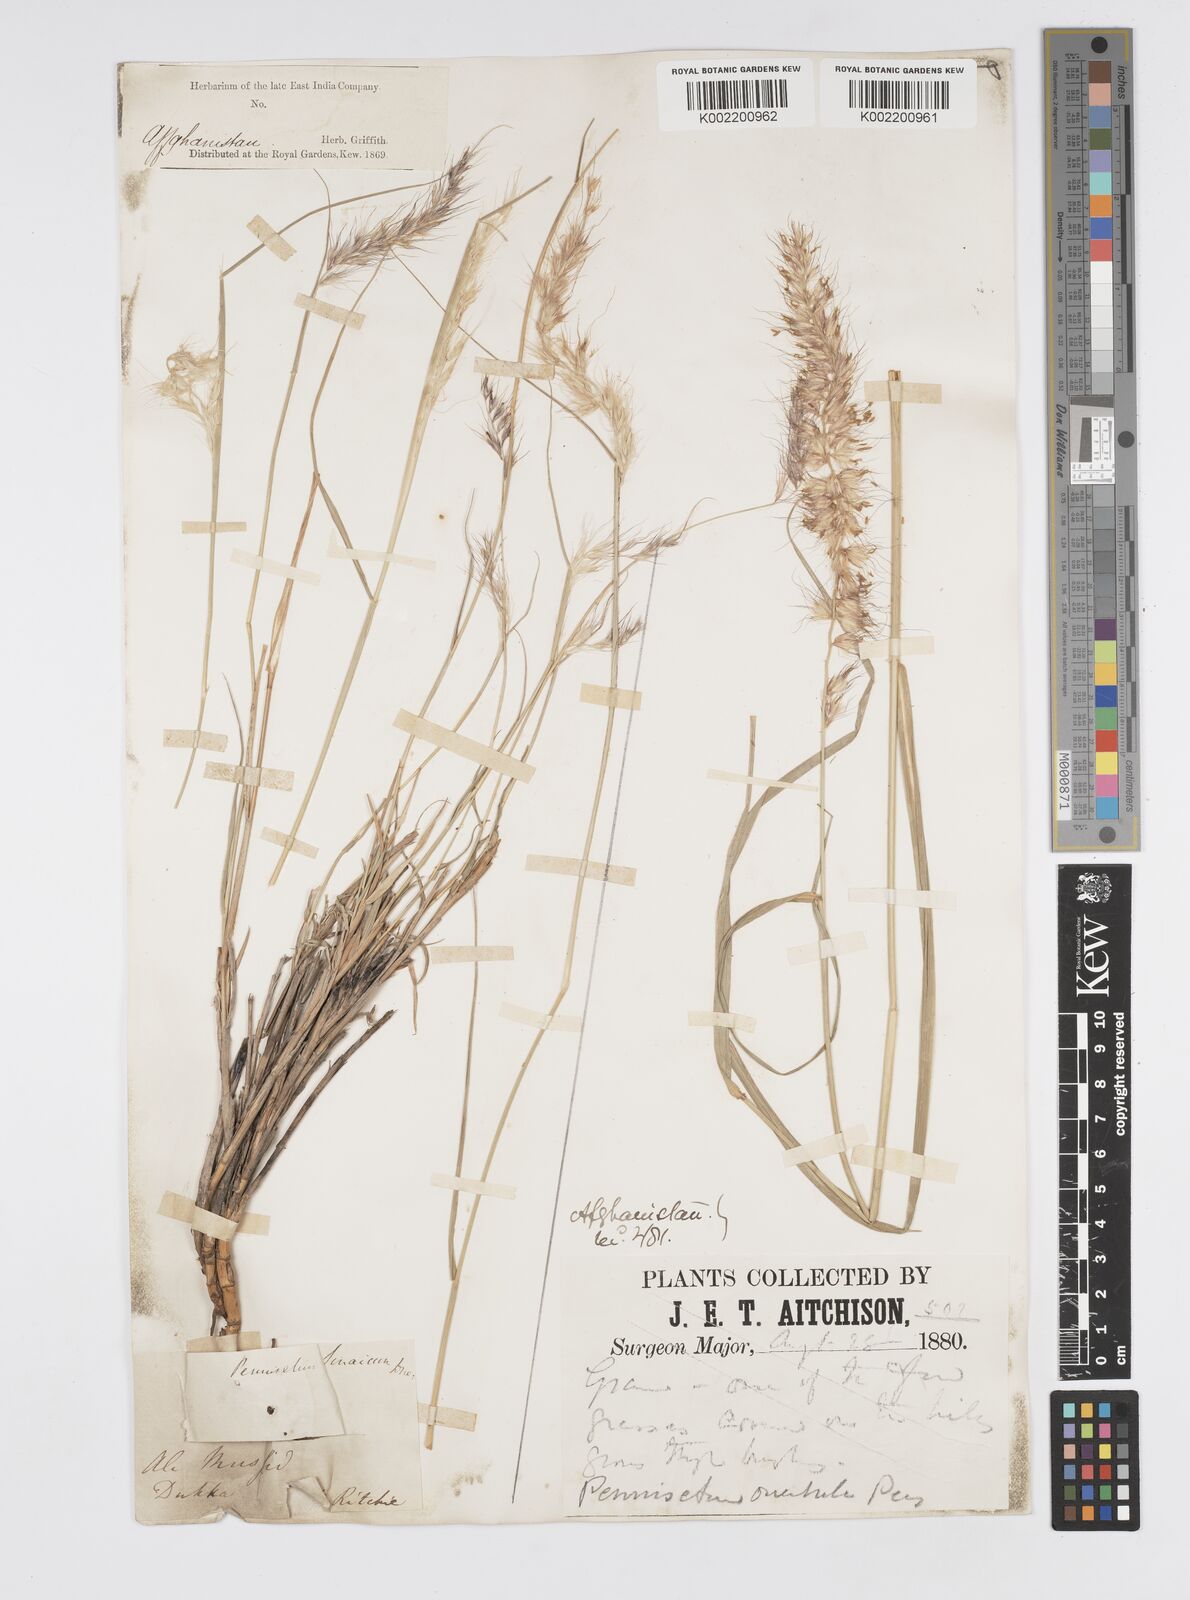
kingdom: Plantae
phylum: Tracheophyta
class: Liliopsida
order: Poales
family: Poaceae
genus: Cenchrus
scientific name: Cenchrus orientalis
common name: Oriental fountain grass
